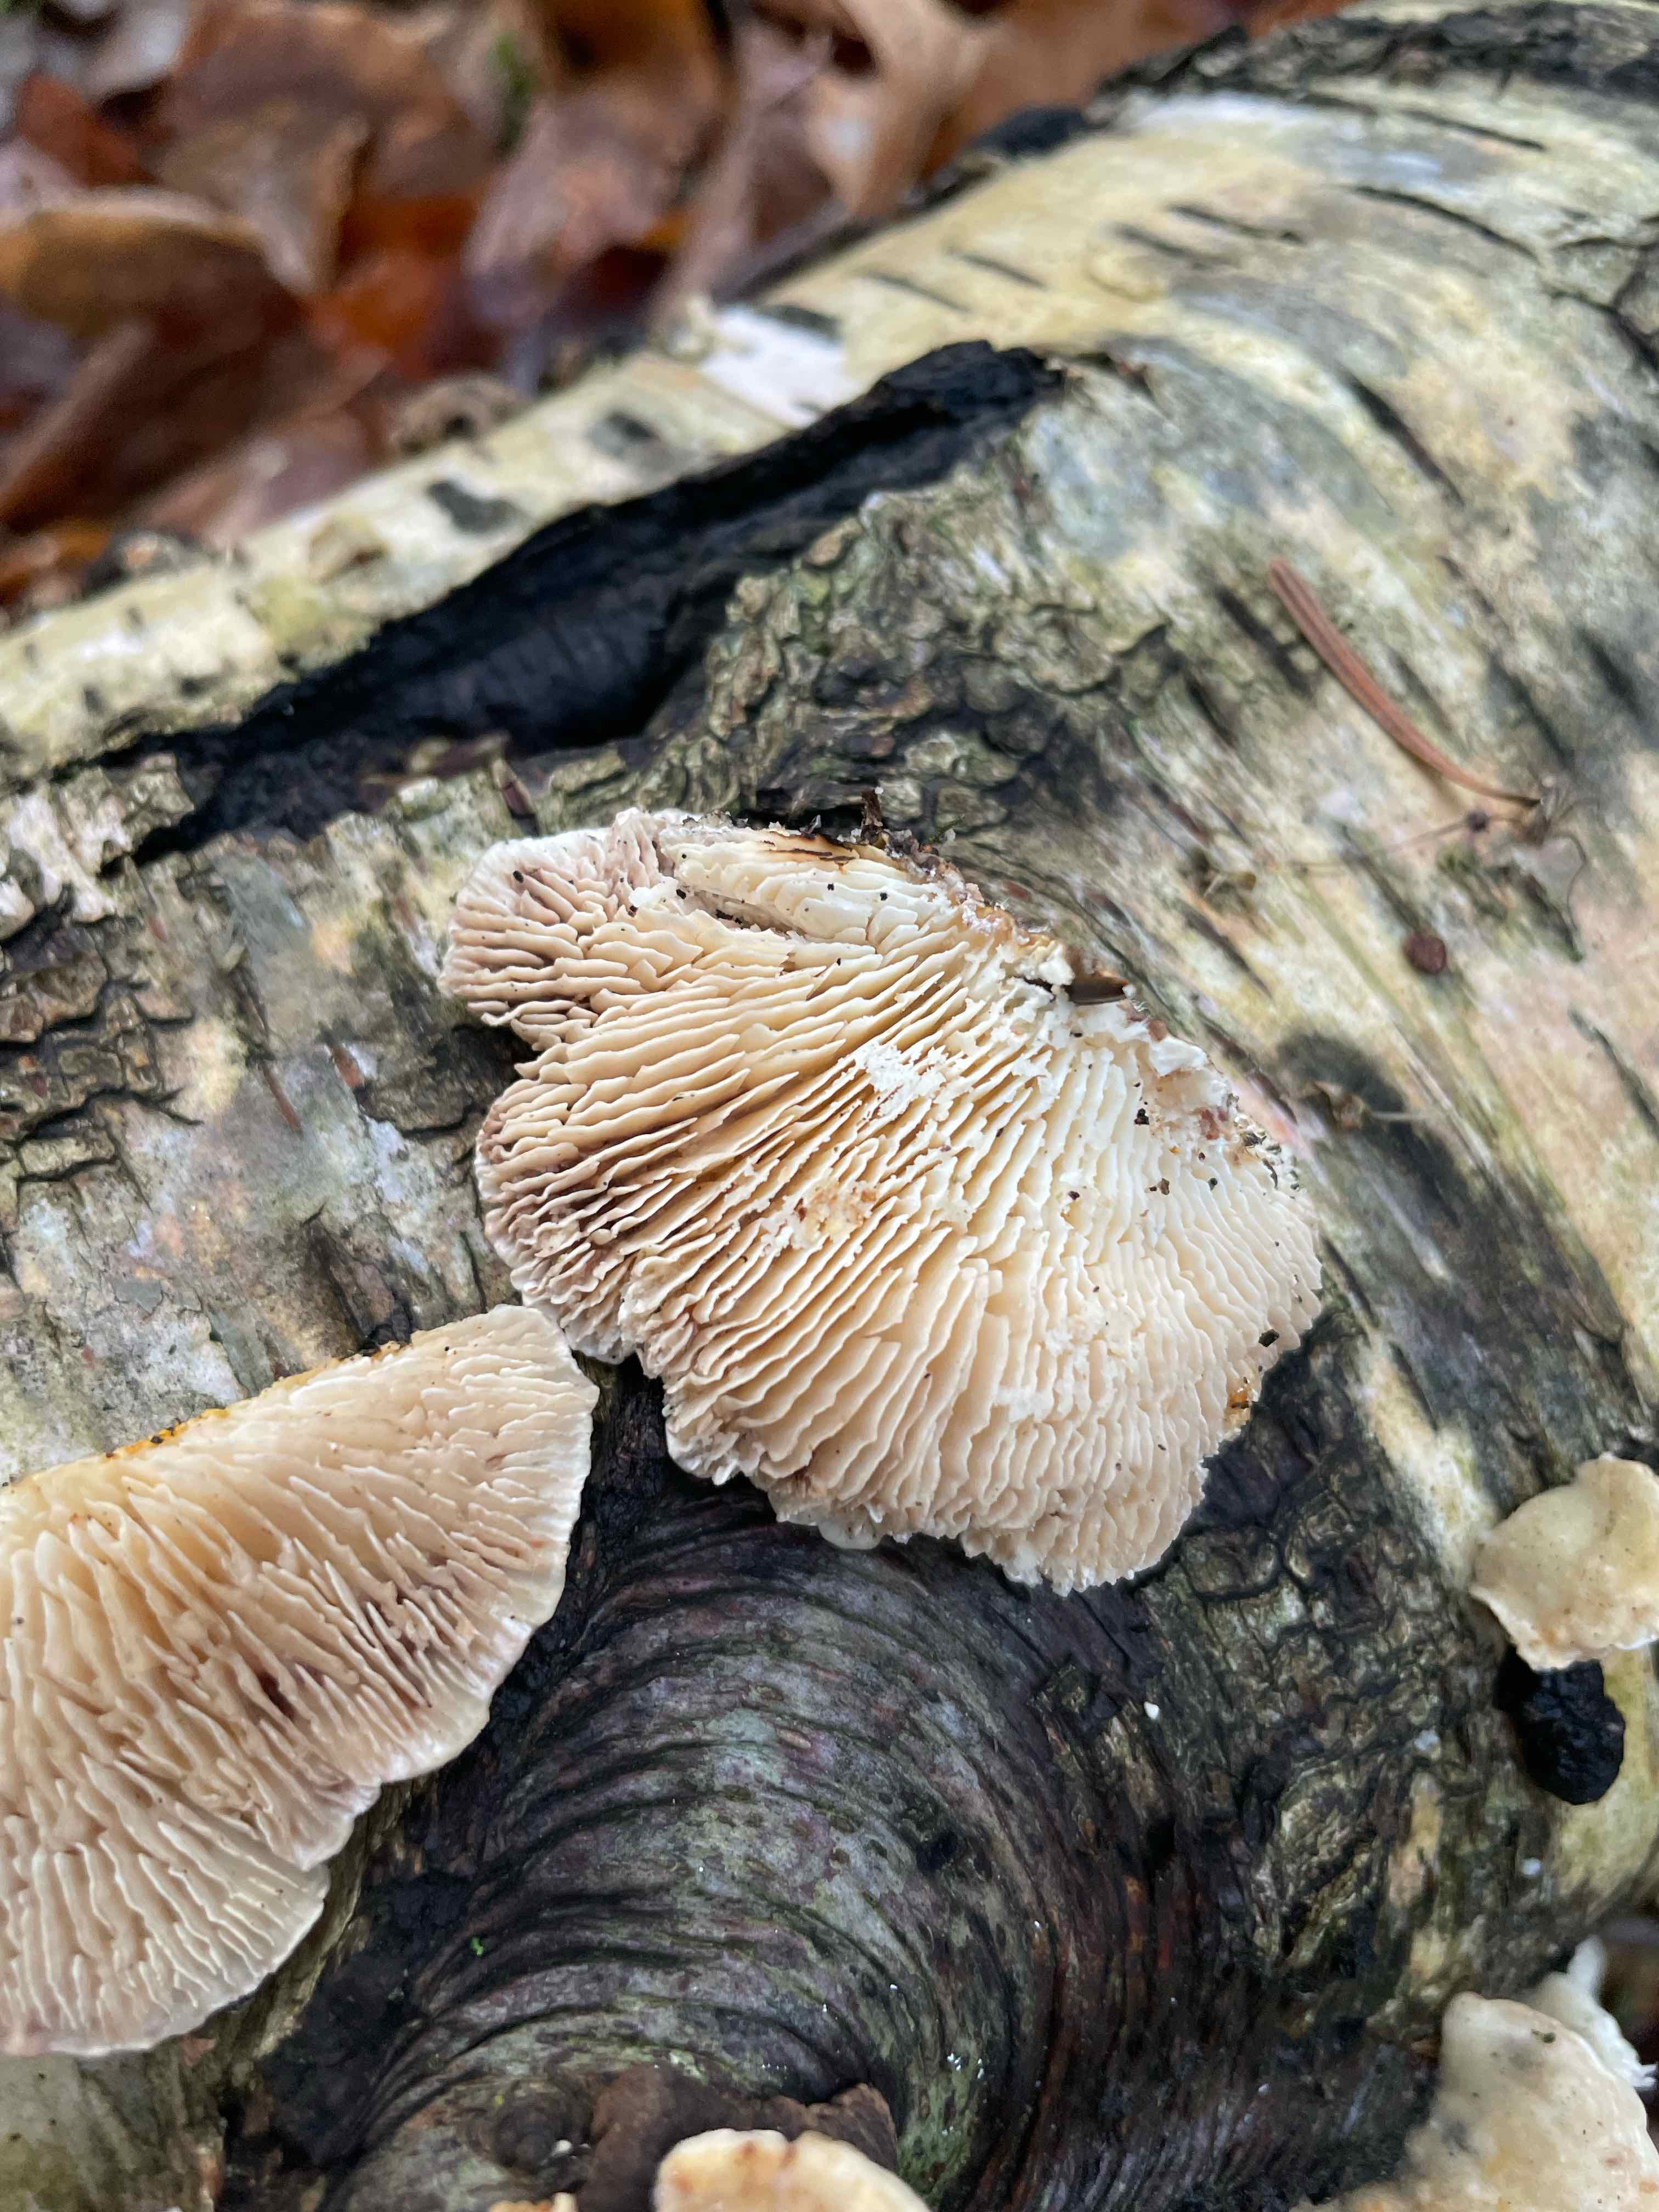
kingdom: Fungi
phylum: Basidiomycota
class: Agaricomycetes
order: Polyporales
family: Polyporaceae
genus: Lenzites
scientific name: Lenzites betulinus
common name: birke-læderporesvamp
